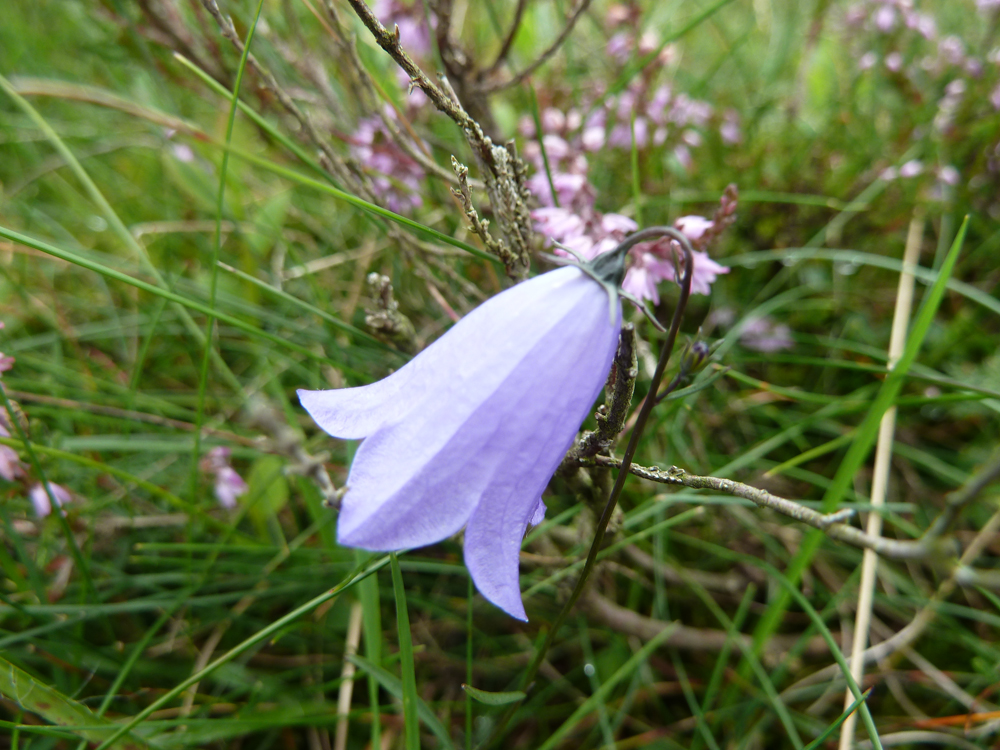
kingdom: Plantae
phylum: Tracheophyta
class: Magnoliopsida
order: Asterales
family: Campanulaceae
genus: Campanula
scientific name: Campanula rotundifolia
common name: Harebell
